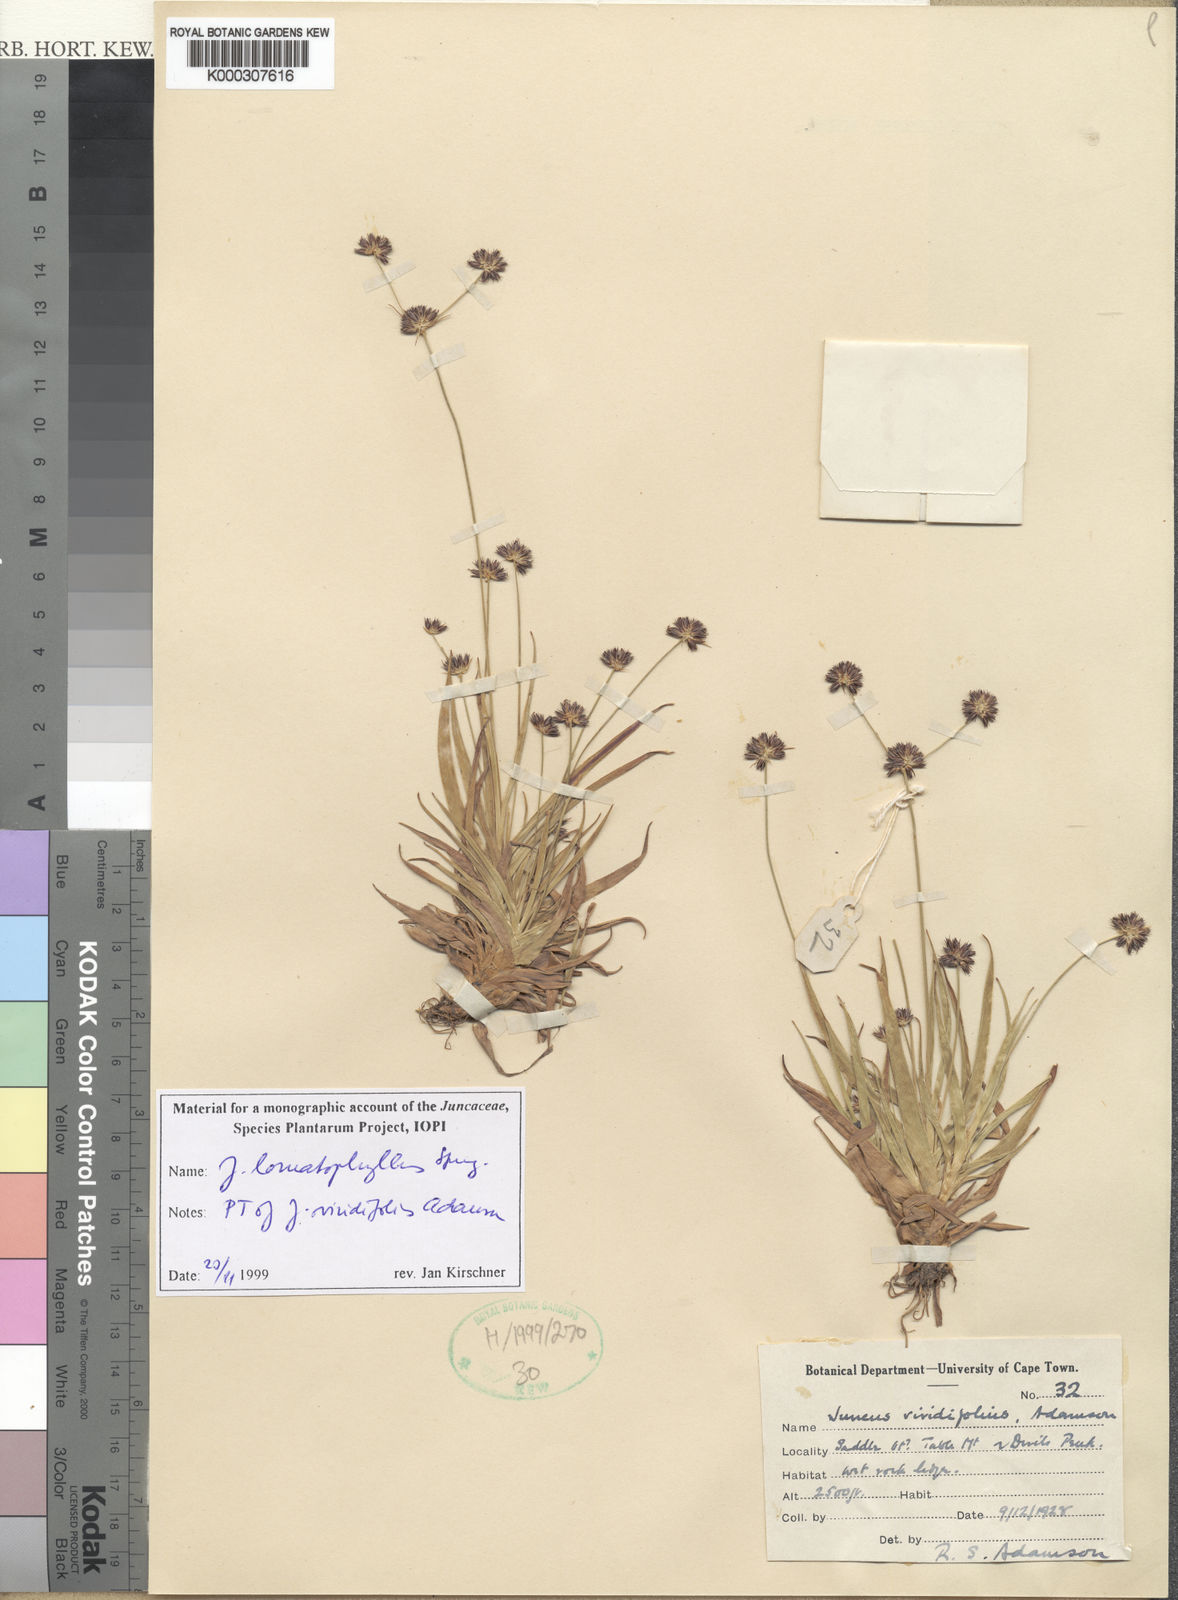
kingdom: Plantae
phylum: Tracheophyta
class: Liliopsida
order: Poales
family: Juncaceae
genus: Juncus
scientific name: Juncus lomatophyllus
